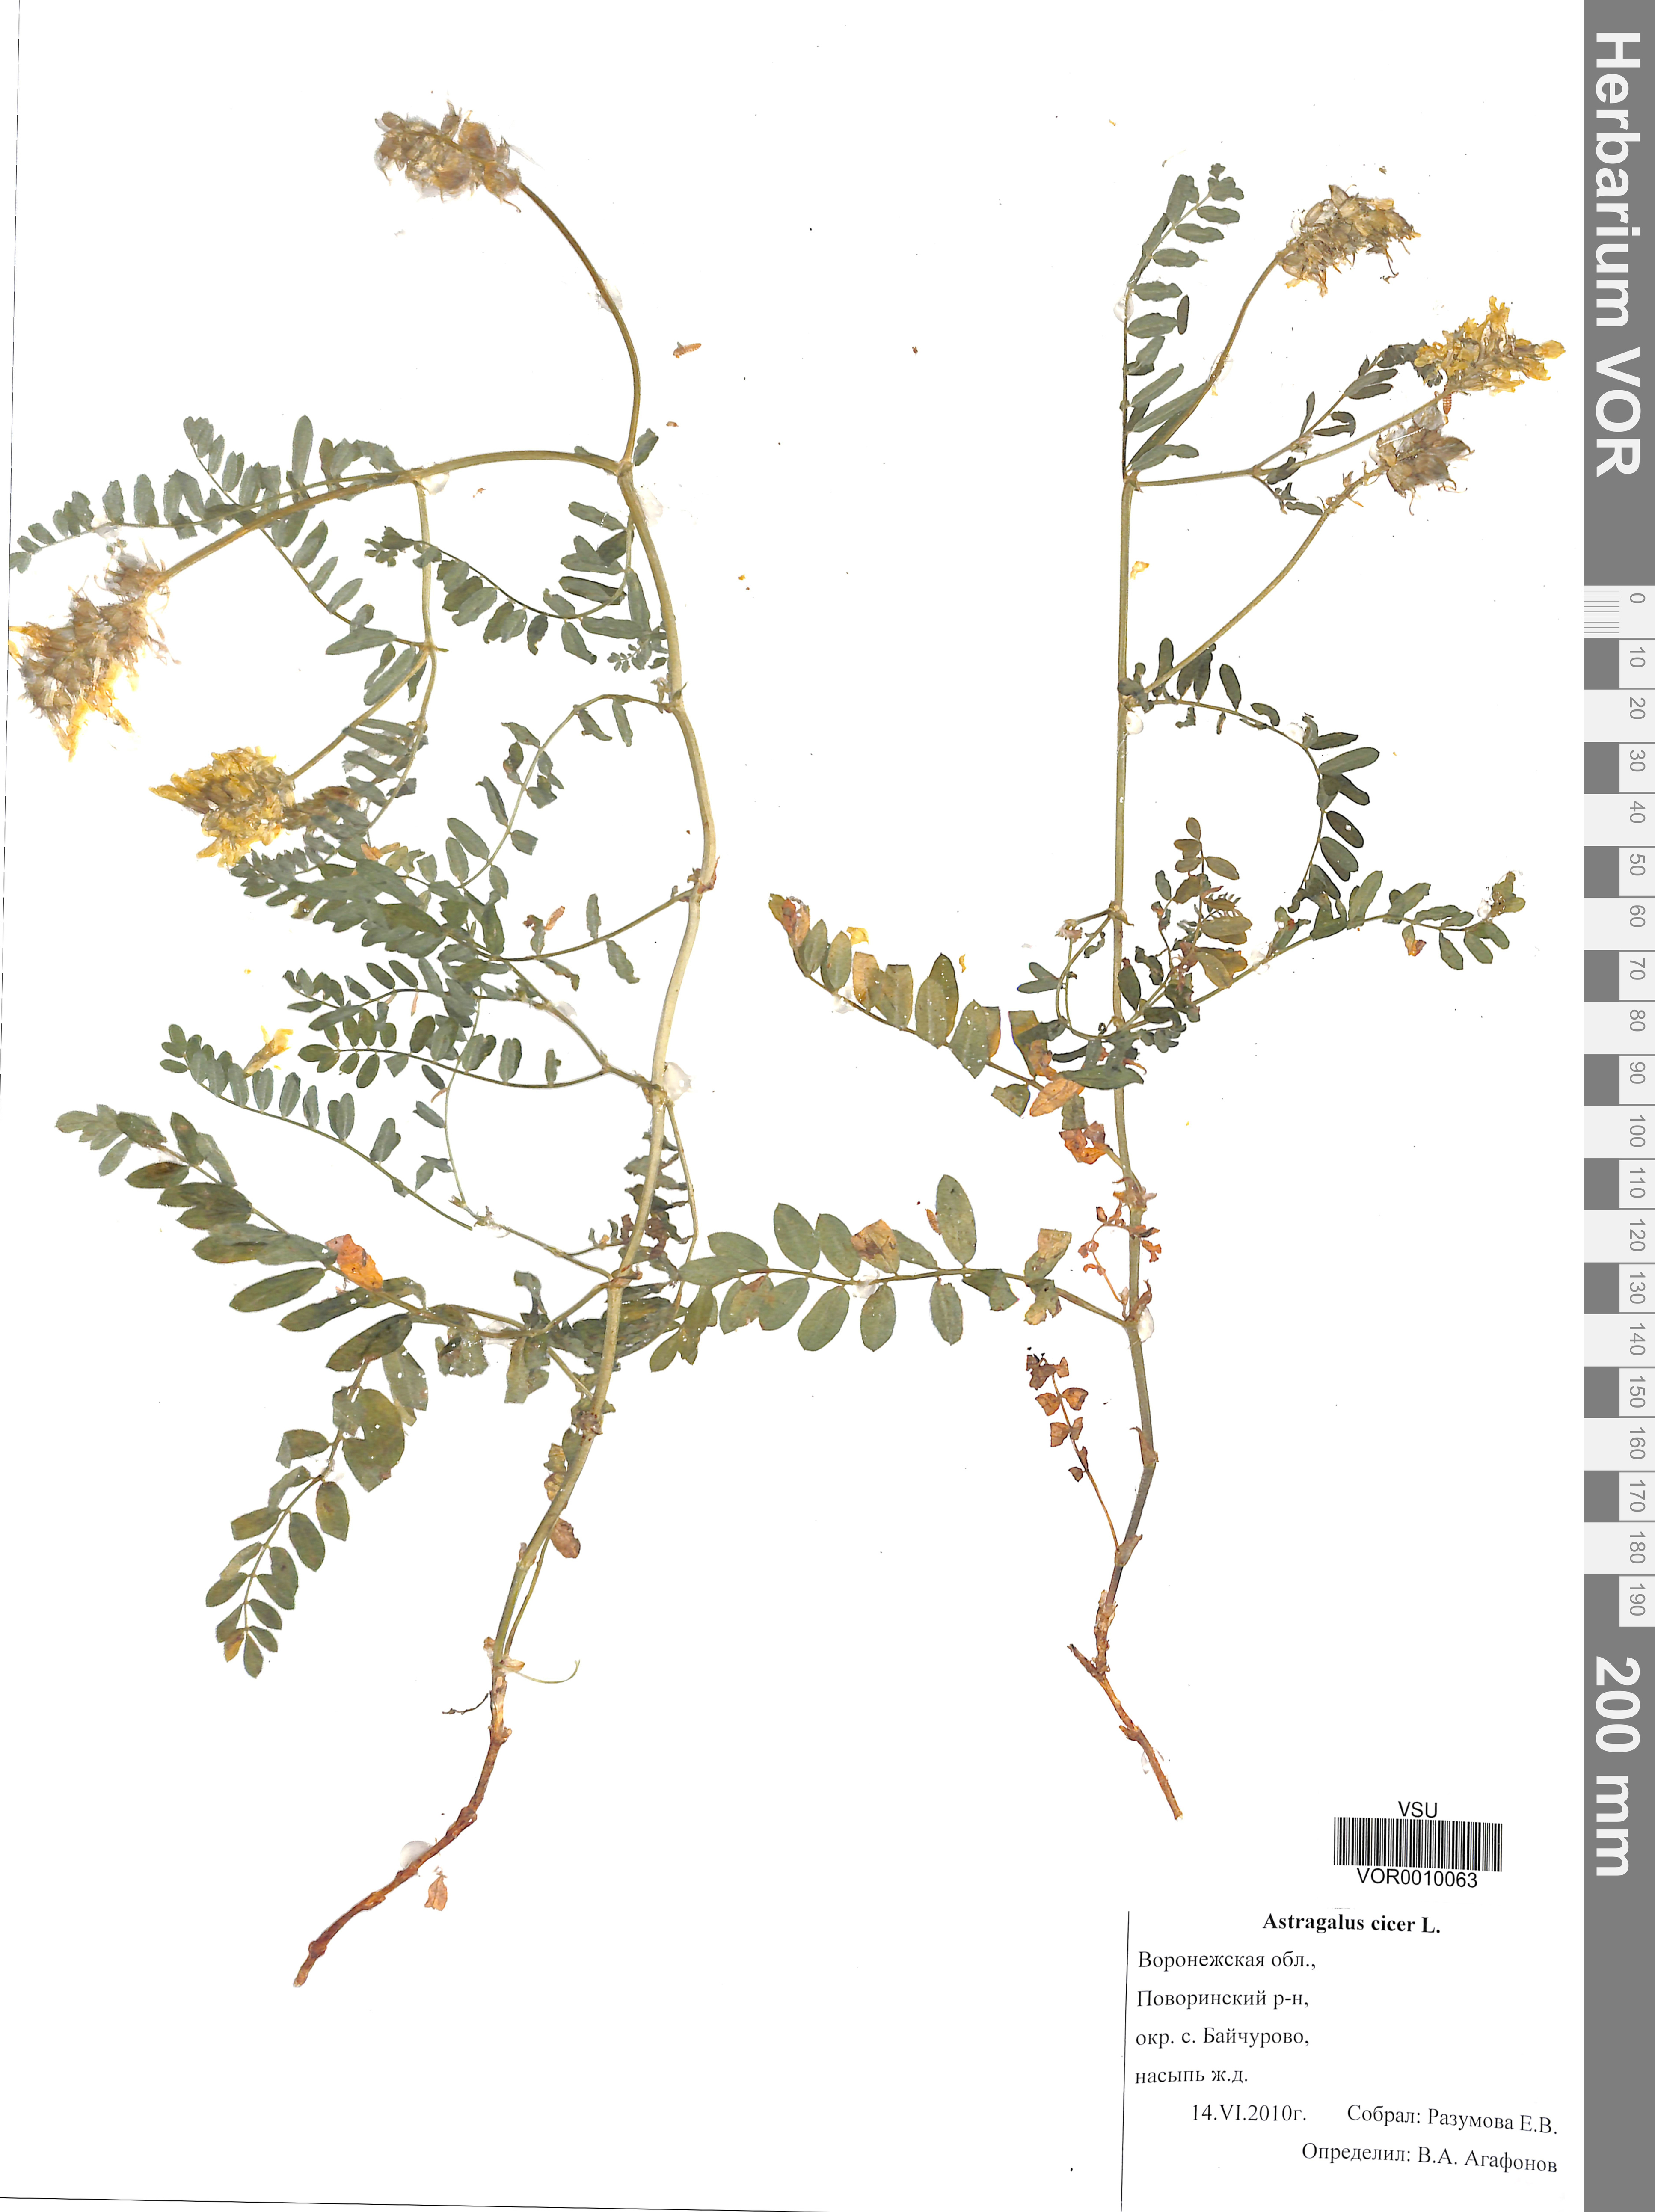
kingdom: Plantae
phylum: Tracheophyta
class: Magnoliopsida
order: Fabales
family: Fabaceae
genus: Astragalus
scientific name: Astragalus cicer
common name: Chick-pea milk-vetch
